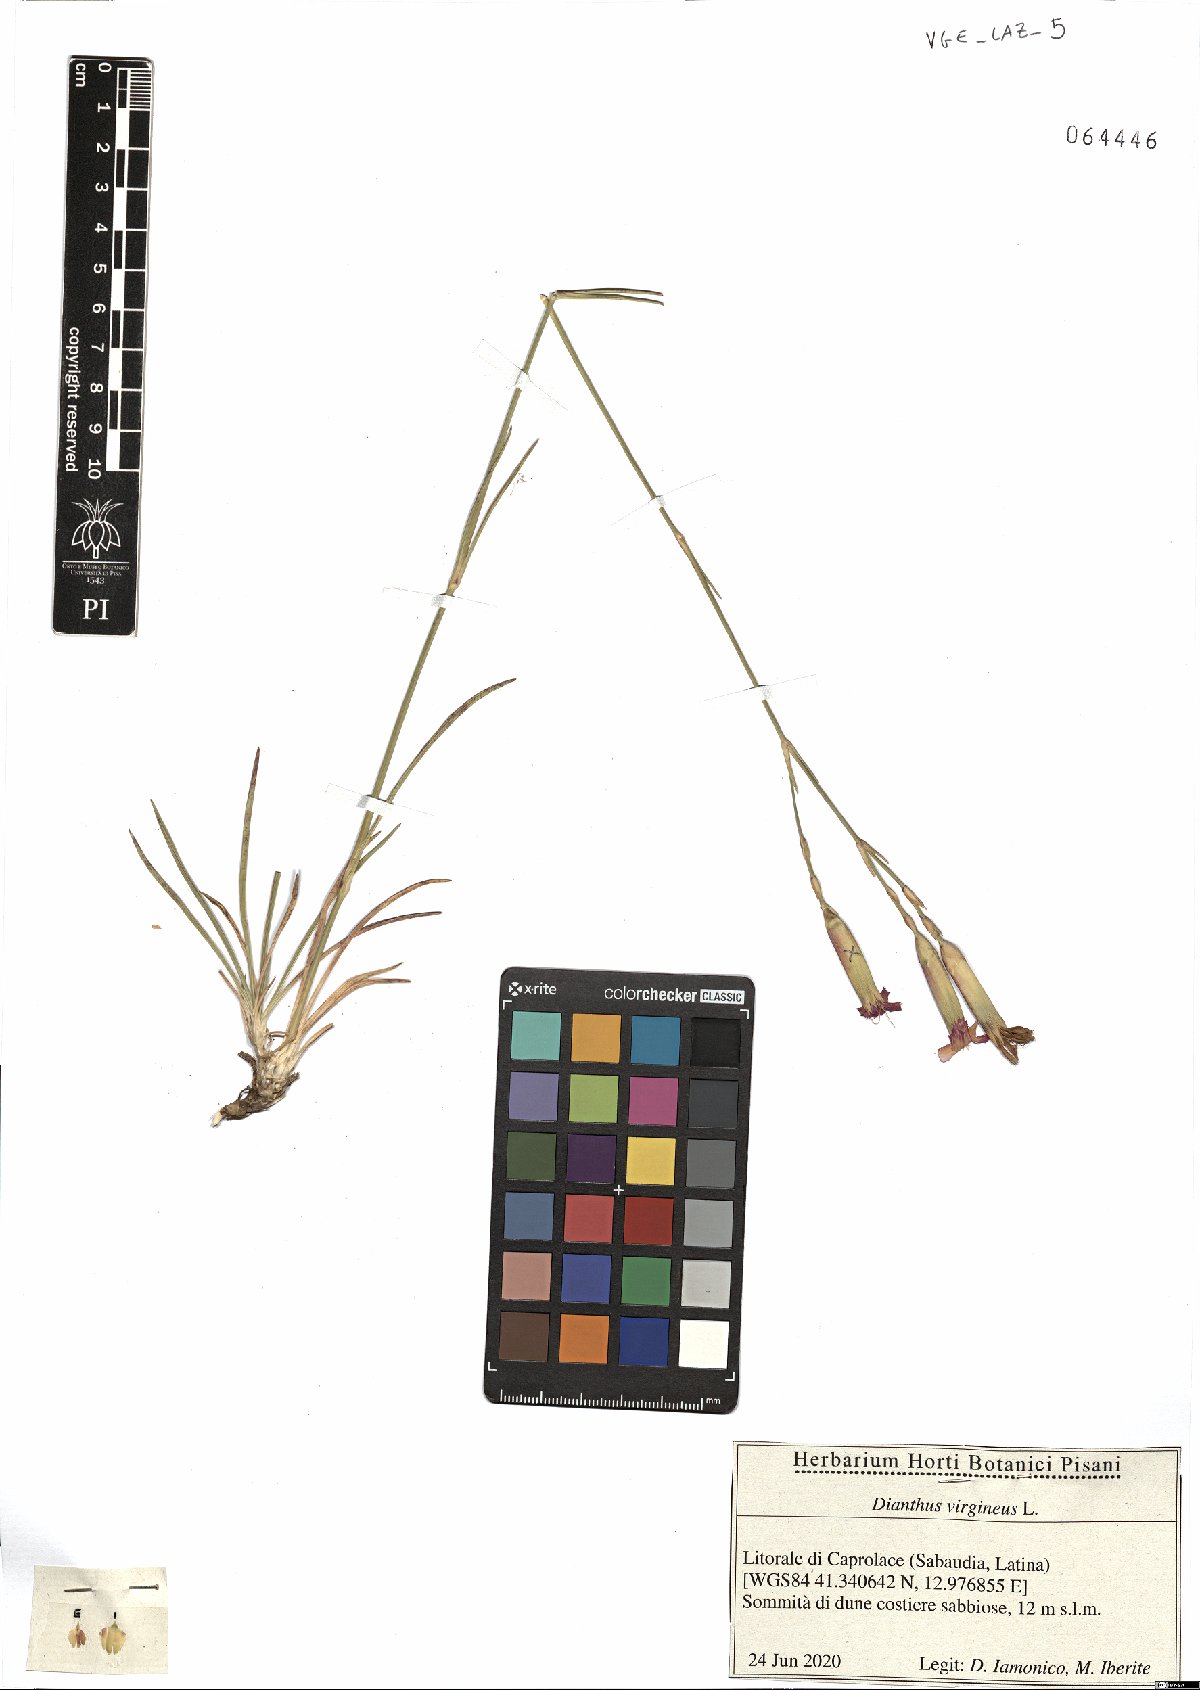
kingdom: Plantae
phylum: Tracheophyta
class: Magnoliopsida
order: Caryophyllales
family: Caryophyllaceae
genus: Dianthus
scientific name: Dianthus virgineus
